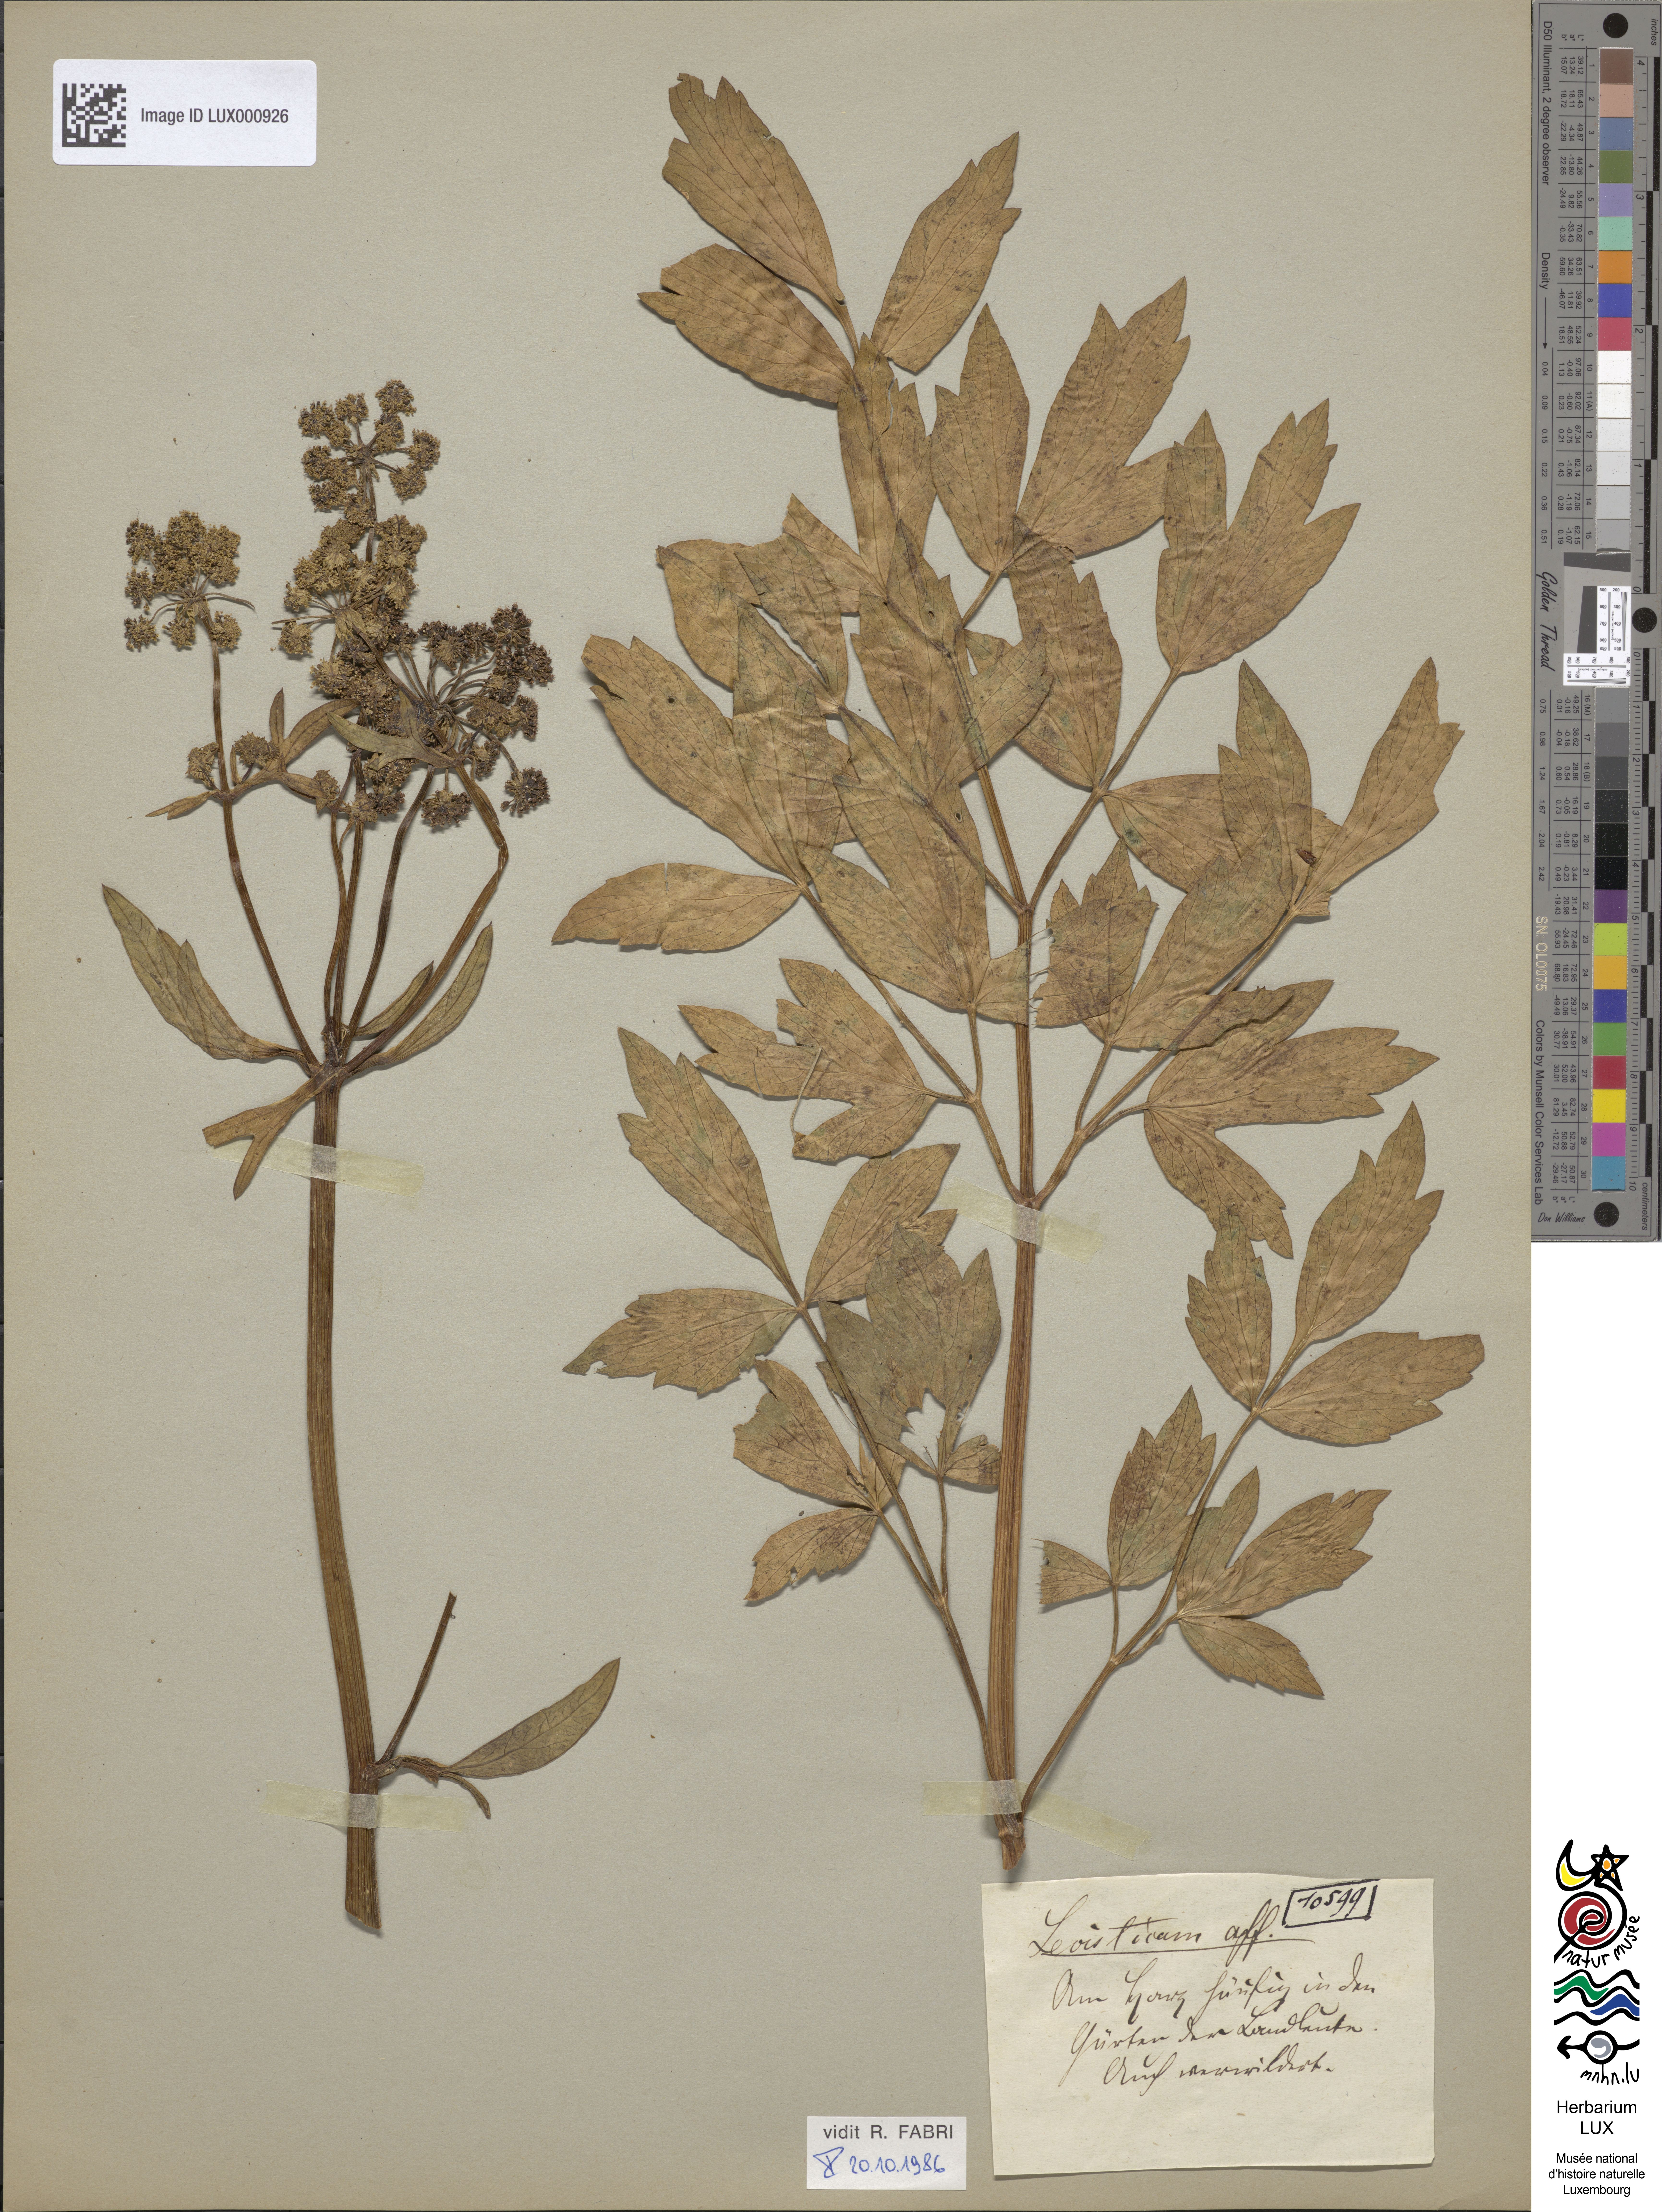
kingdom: Plantae
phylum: Tracheophyta
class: Magnoliopsida
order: Apiales
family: Apiaceae
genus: Levisticum
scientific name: Levisticum officinale
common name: Lovage
